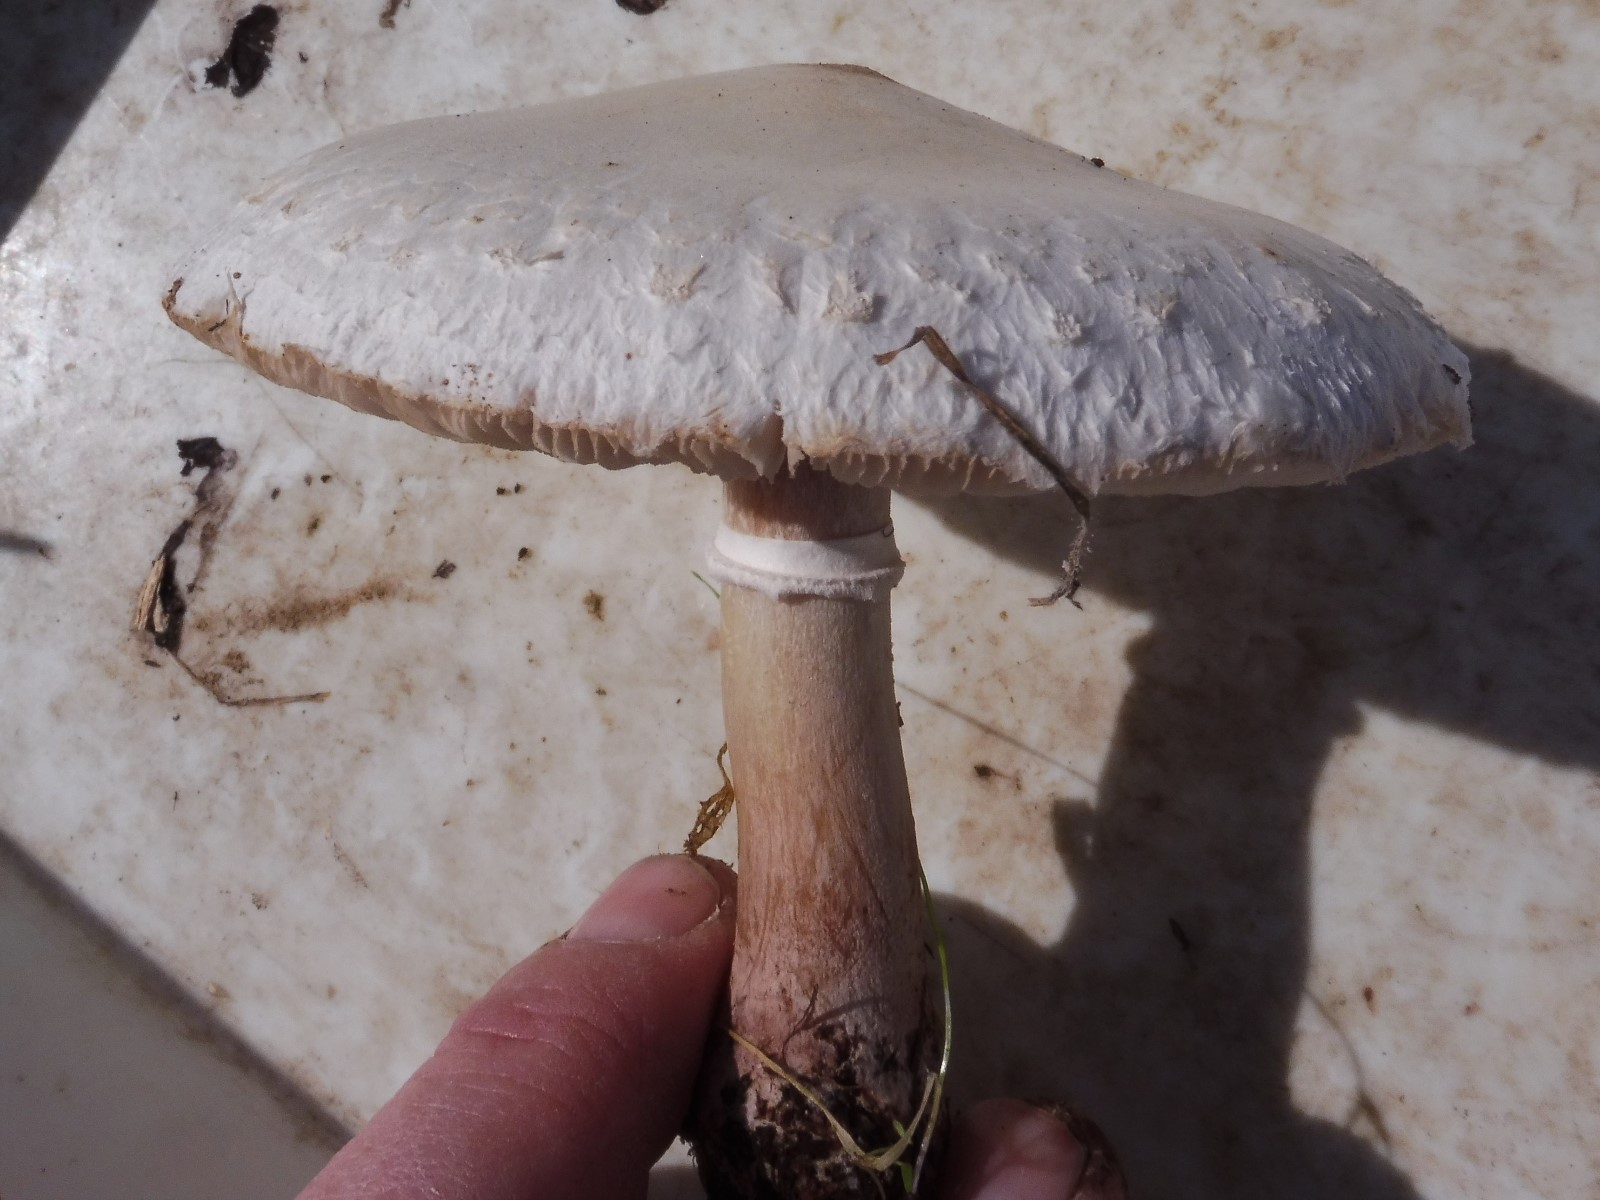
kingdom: Fungi
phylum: Basidiomycota
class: Agaricomycetes
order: Agaricales
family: Agaricaceae
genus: Macrolepiota
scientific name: Macrolepiota excoriata
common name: mark-kæmpeparasolhat
